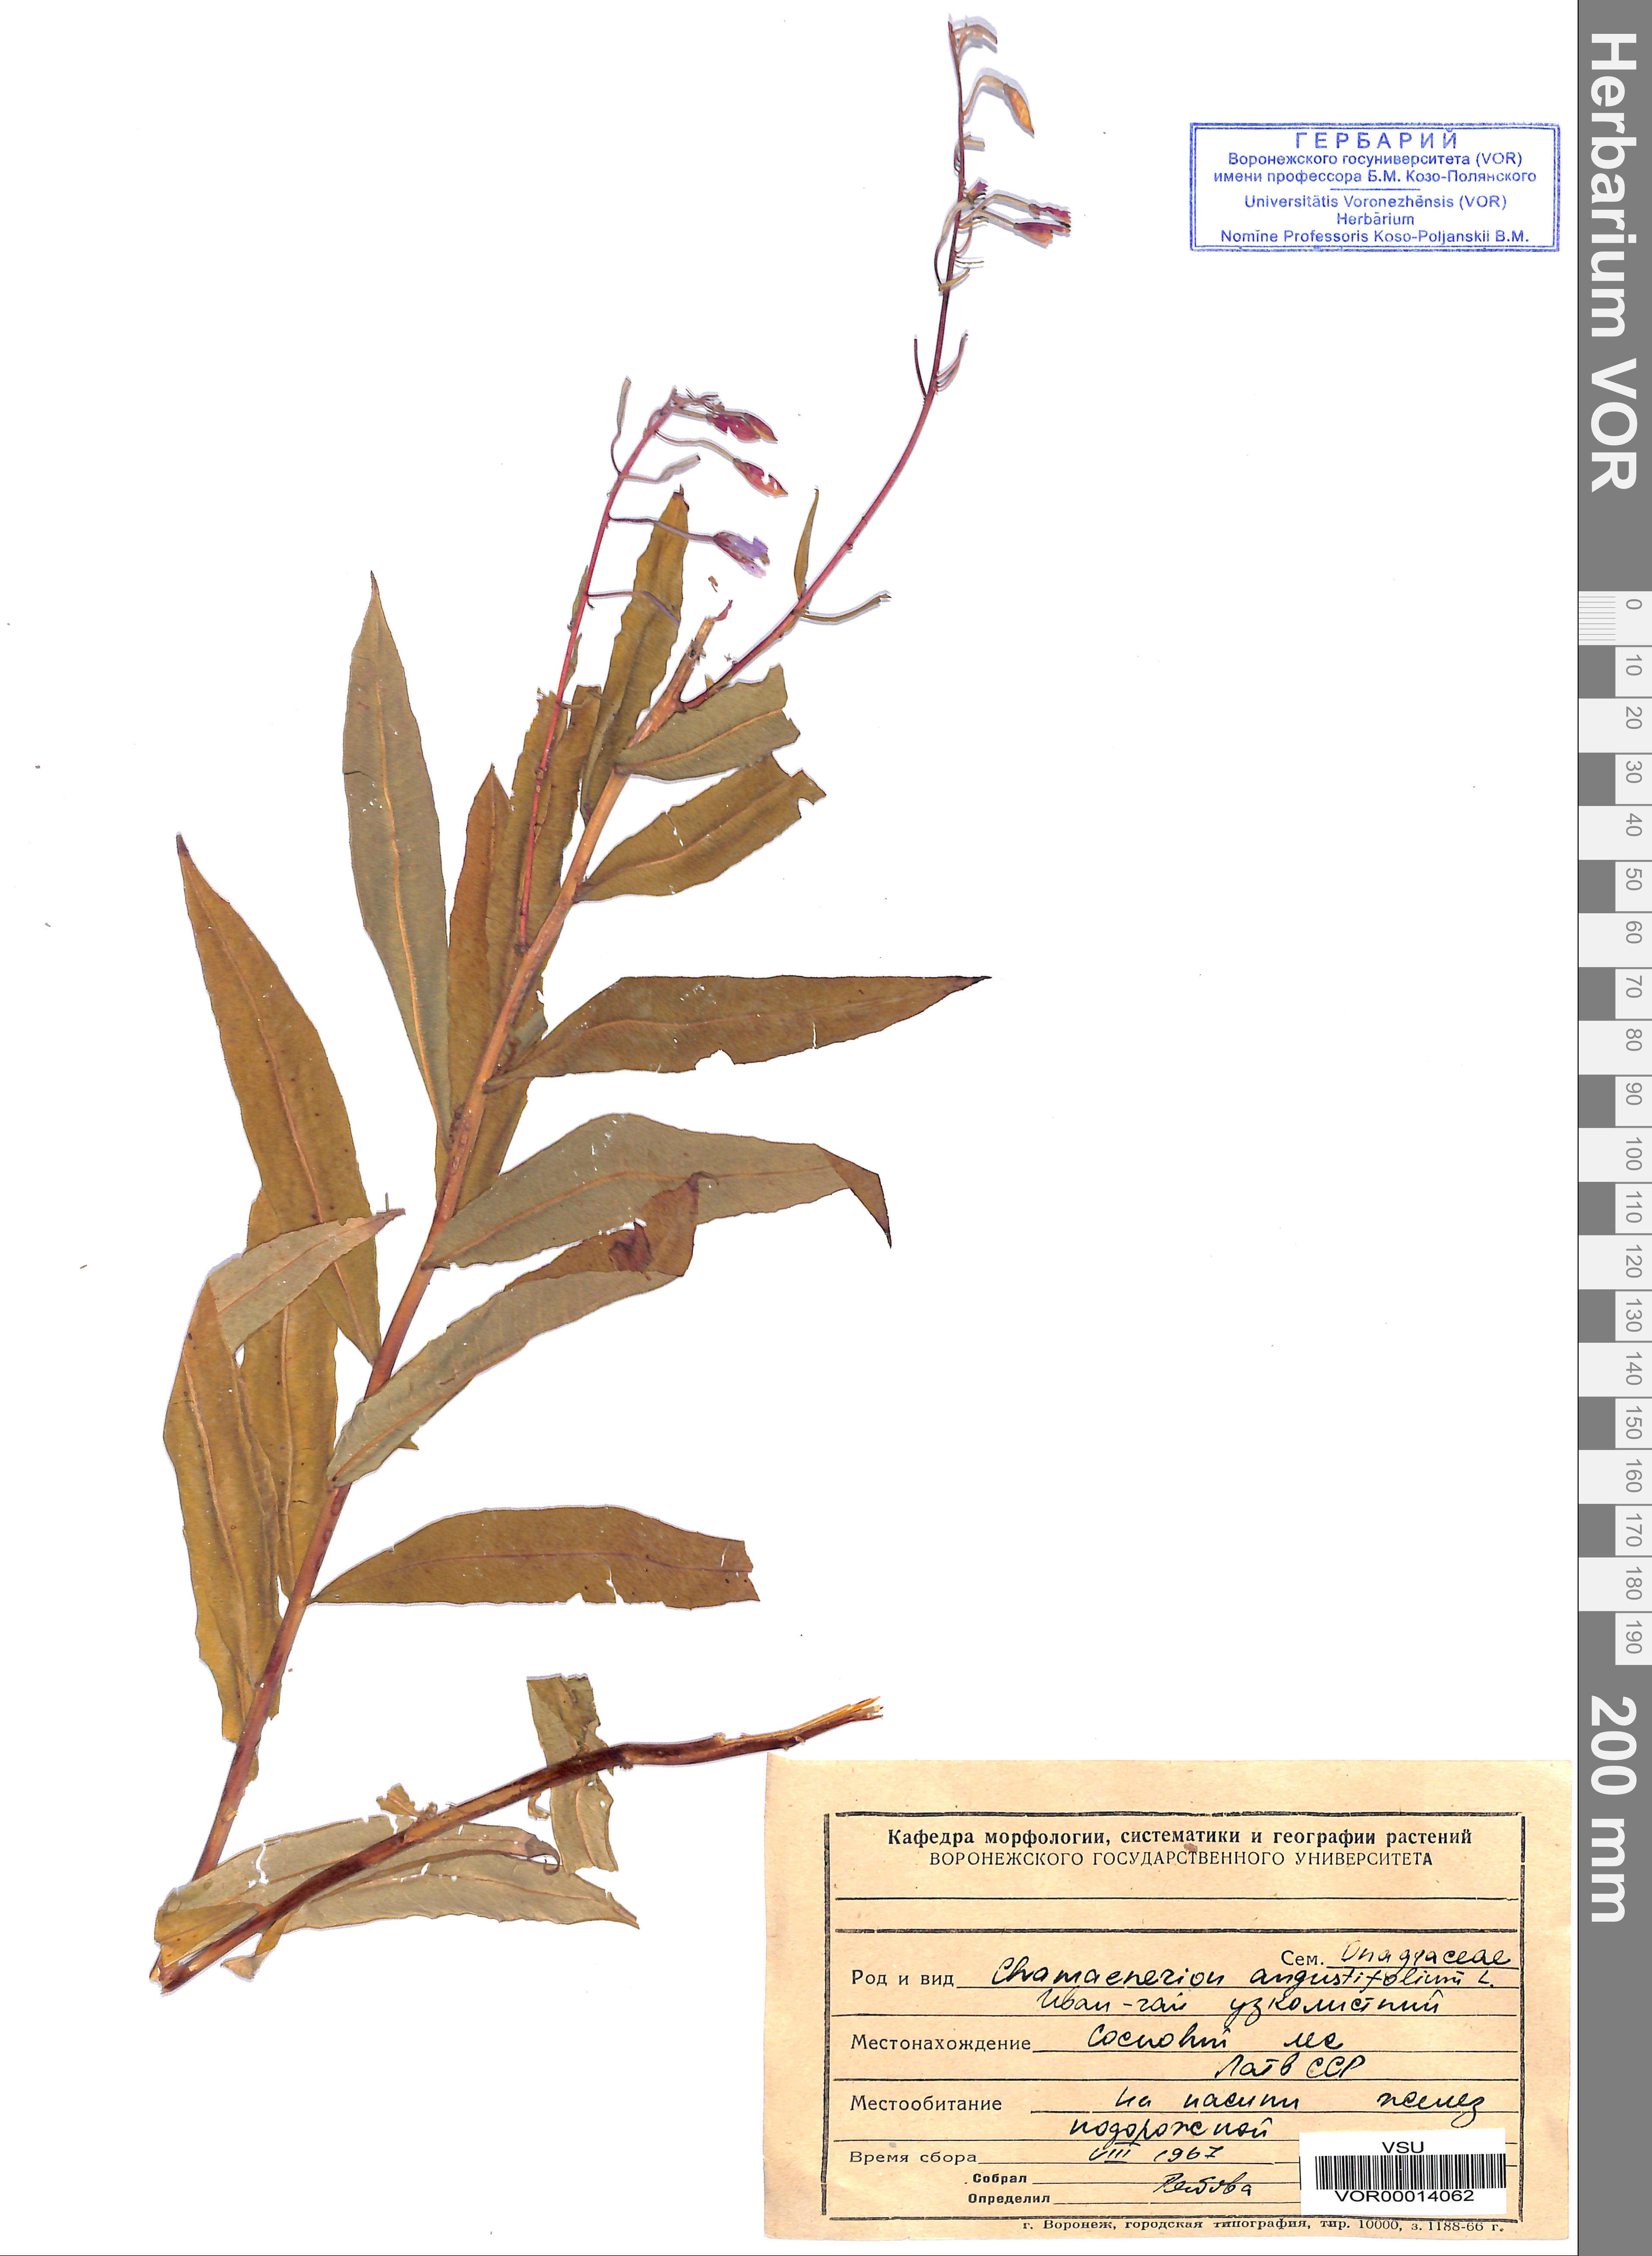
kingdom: Plantae
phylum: Tracheophyta
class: Magnoliopsida
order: Myrtales
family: Onagraceae
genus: Chamaenerion
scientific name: Chamaenerion angustifolium
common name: Fireweed
